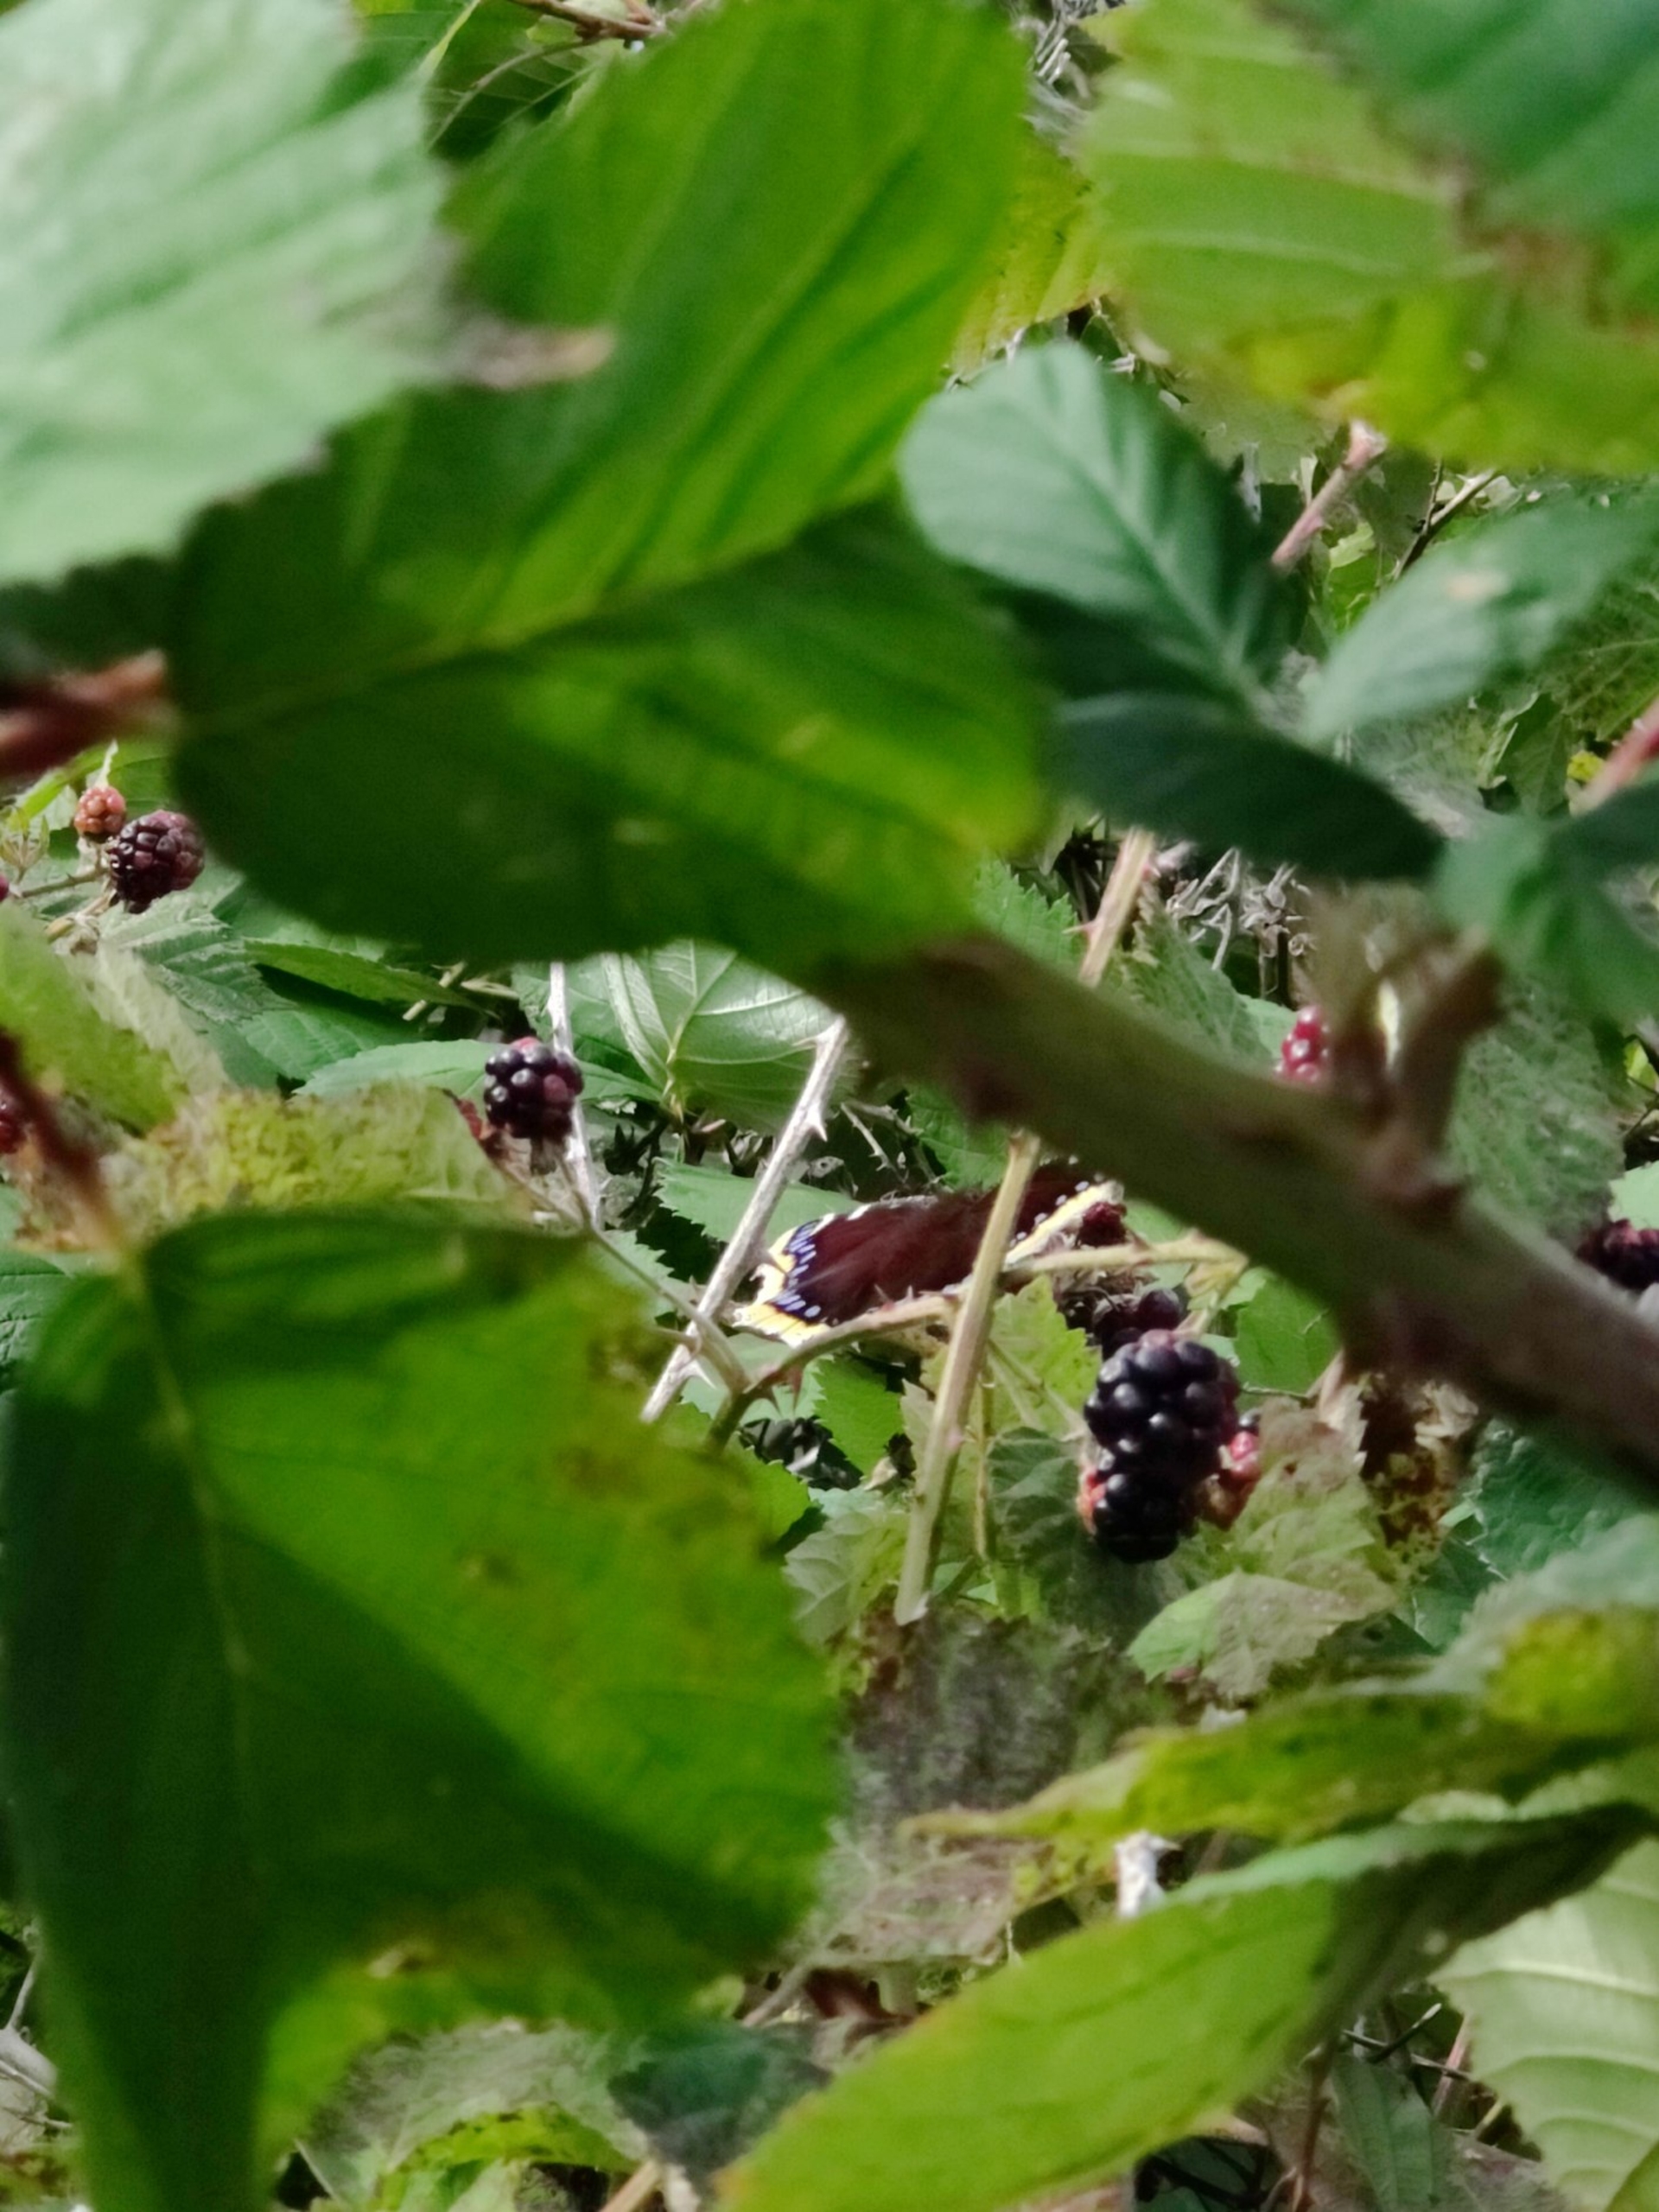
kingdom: Animalia
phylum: Arthropoda
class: Insecta
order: Lepidoptera
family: Nymphalidae
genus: Nymphalis
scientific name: Nymphalis antiopa
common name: Sørgekåbe
